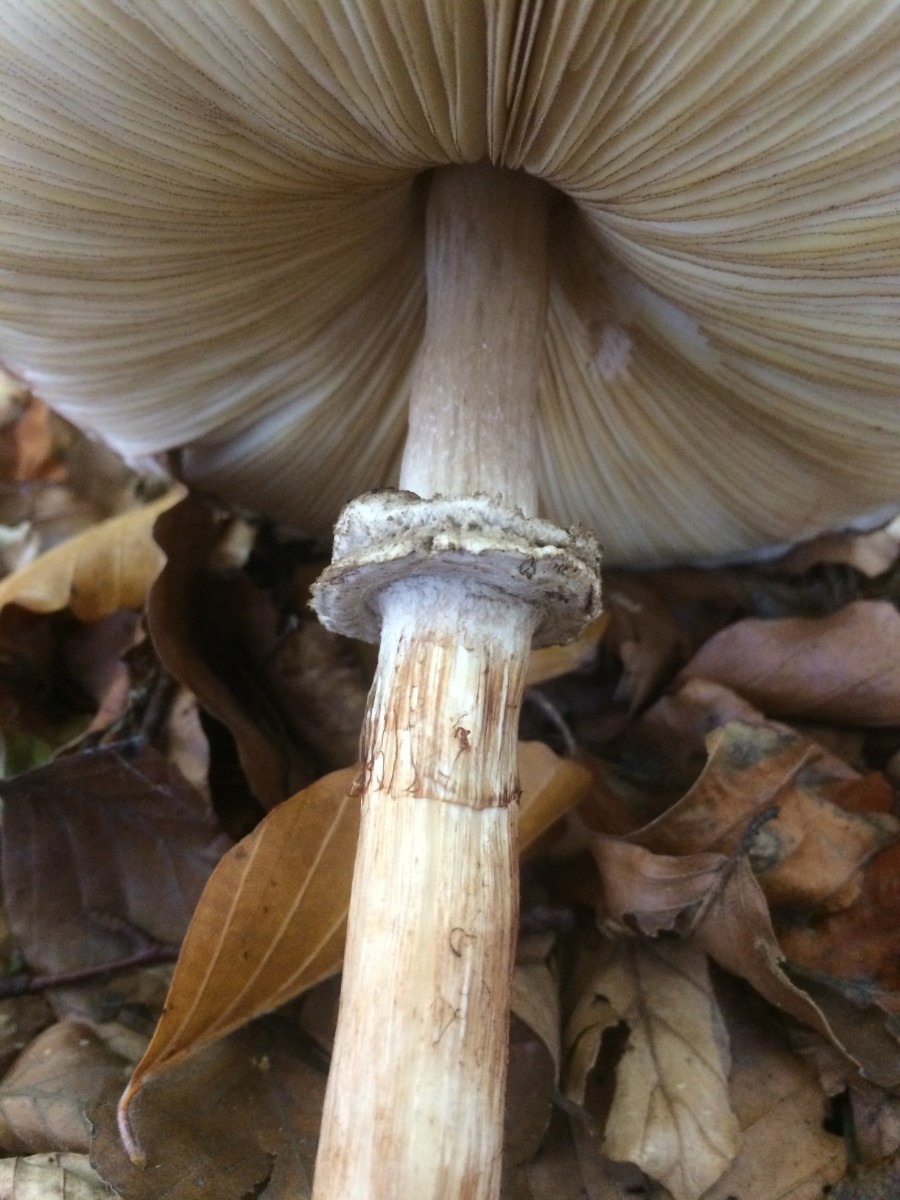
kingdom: Fungi
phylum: Basidiomycota
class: Agaricomycetes
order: Agaricales
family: Agaricaceae
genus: Chlorophyllum
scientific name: Chlorophyllum olivieri
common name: almindelig rabarberhat
